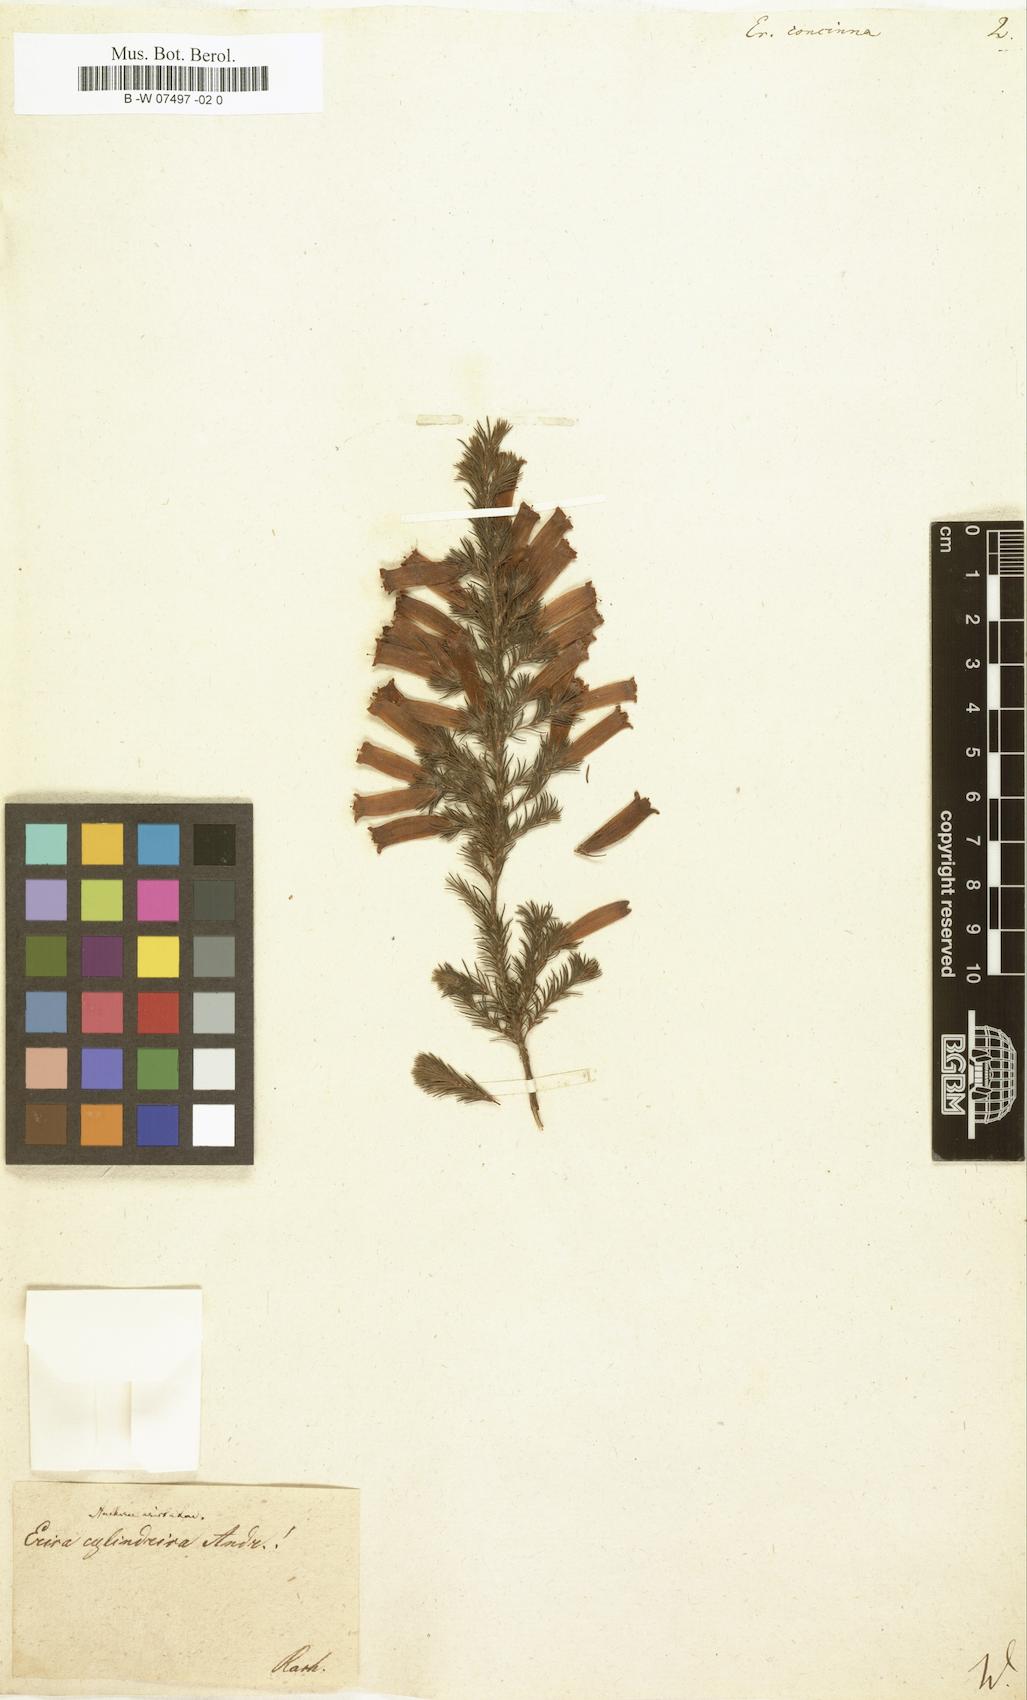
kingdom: Plantae
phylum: Tracheophyta
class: Magnoliopsida
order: Ericales
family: Ericaceae
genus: Erica
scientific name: Erica verticillata
